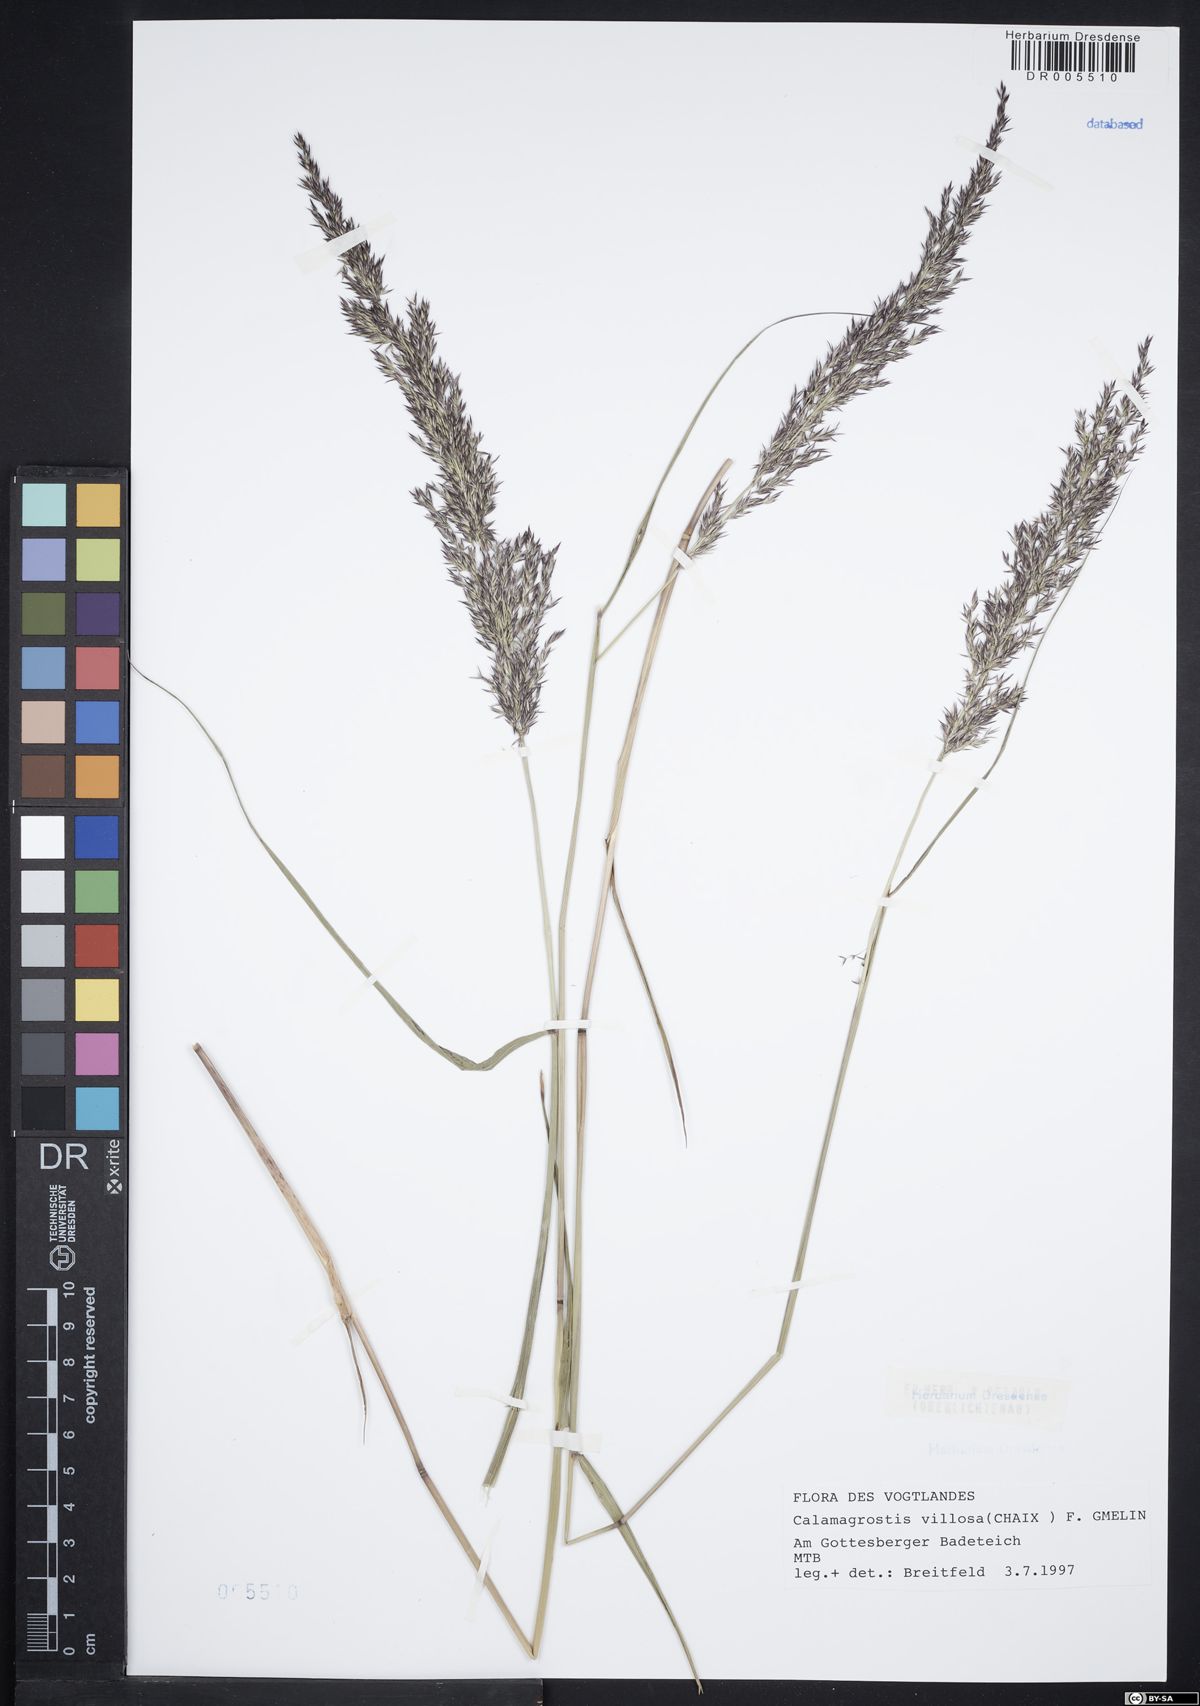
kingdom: Plantae
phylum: Tracheophyta
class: Liliopsida
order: Poales
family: Poaceae
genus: Calamagrostis
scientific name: Calamagrostis villosa
